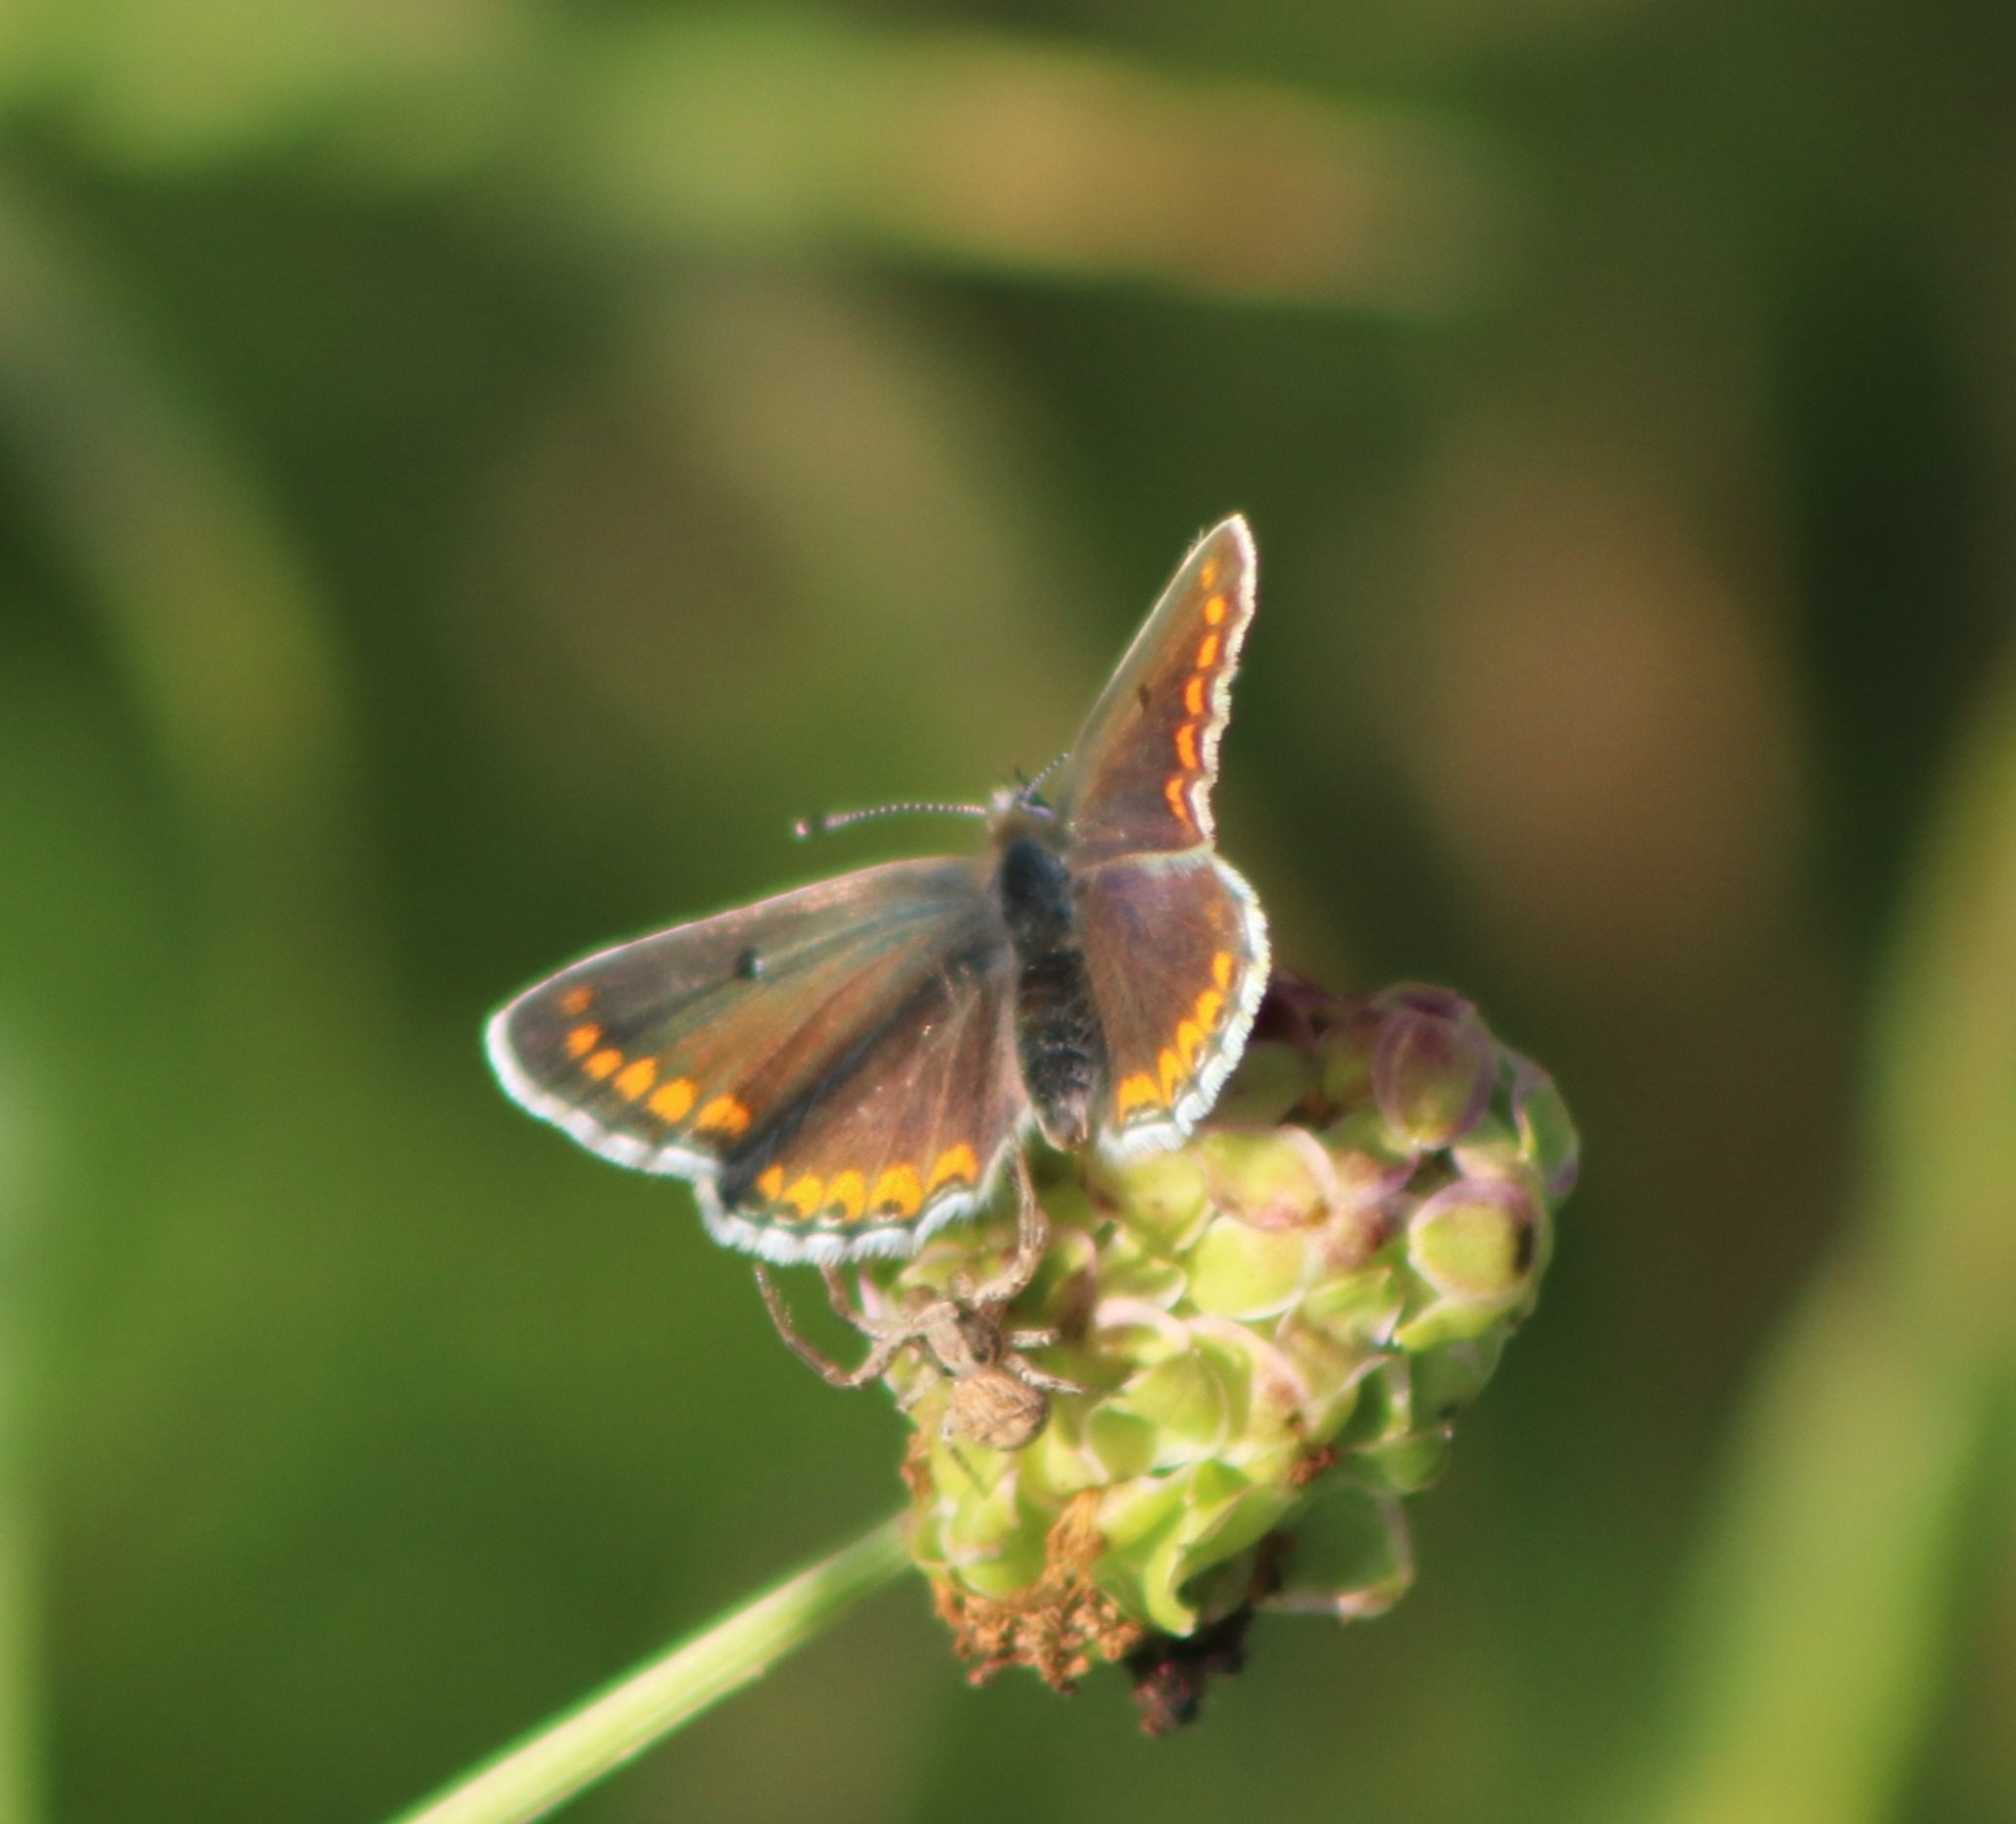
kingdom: Animalia
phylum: Arthropoda
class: Insecta
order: Lepidoptera
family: Lycaenidae
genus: Aricia
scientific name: Aricia agestis
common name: Rødplettet blåfugl
